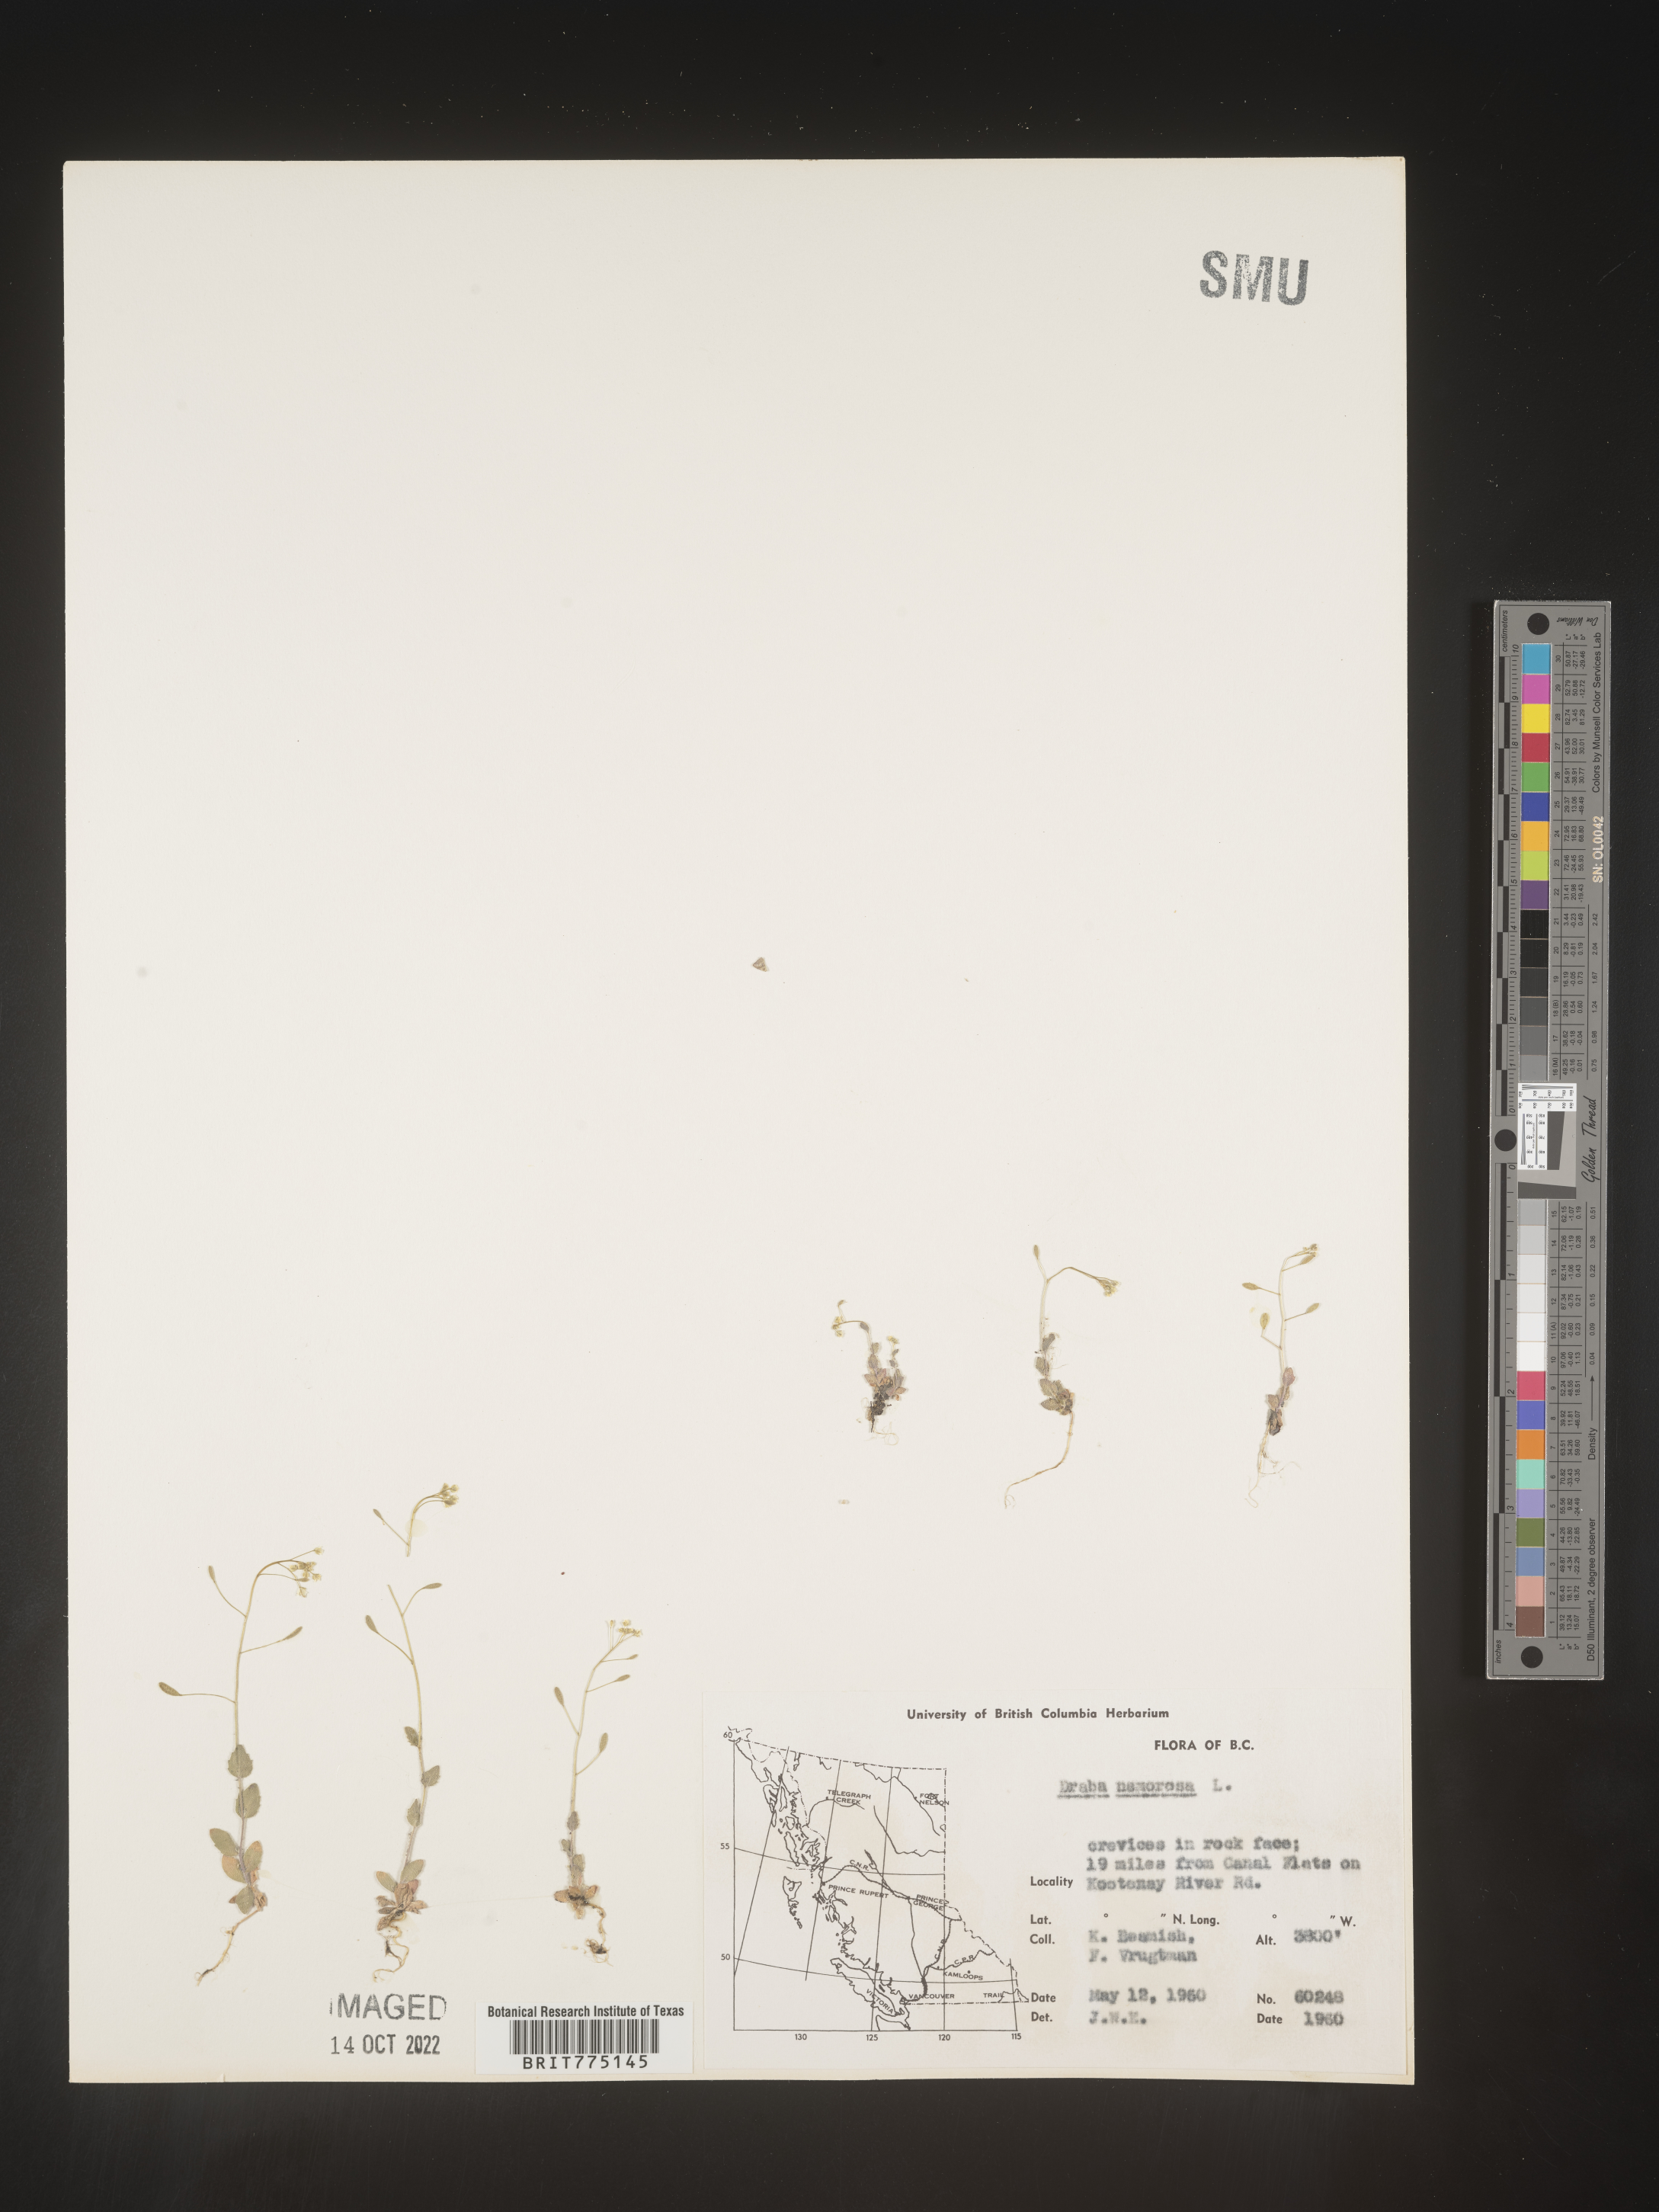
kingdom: Plantae
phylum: Tracheophyta
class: Magnoliopsida
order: Brassicales
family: Brassicaceae
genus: Draba
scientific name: Draba
